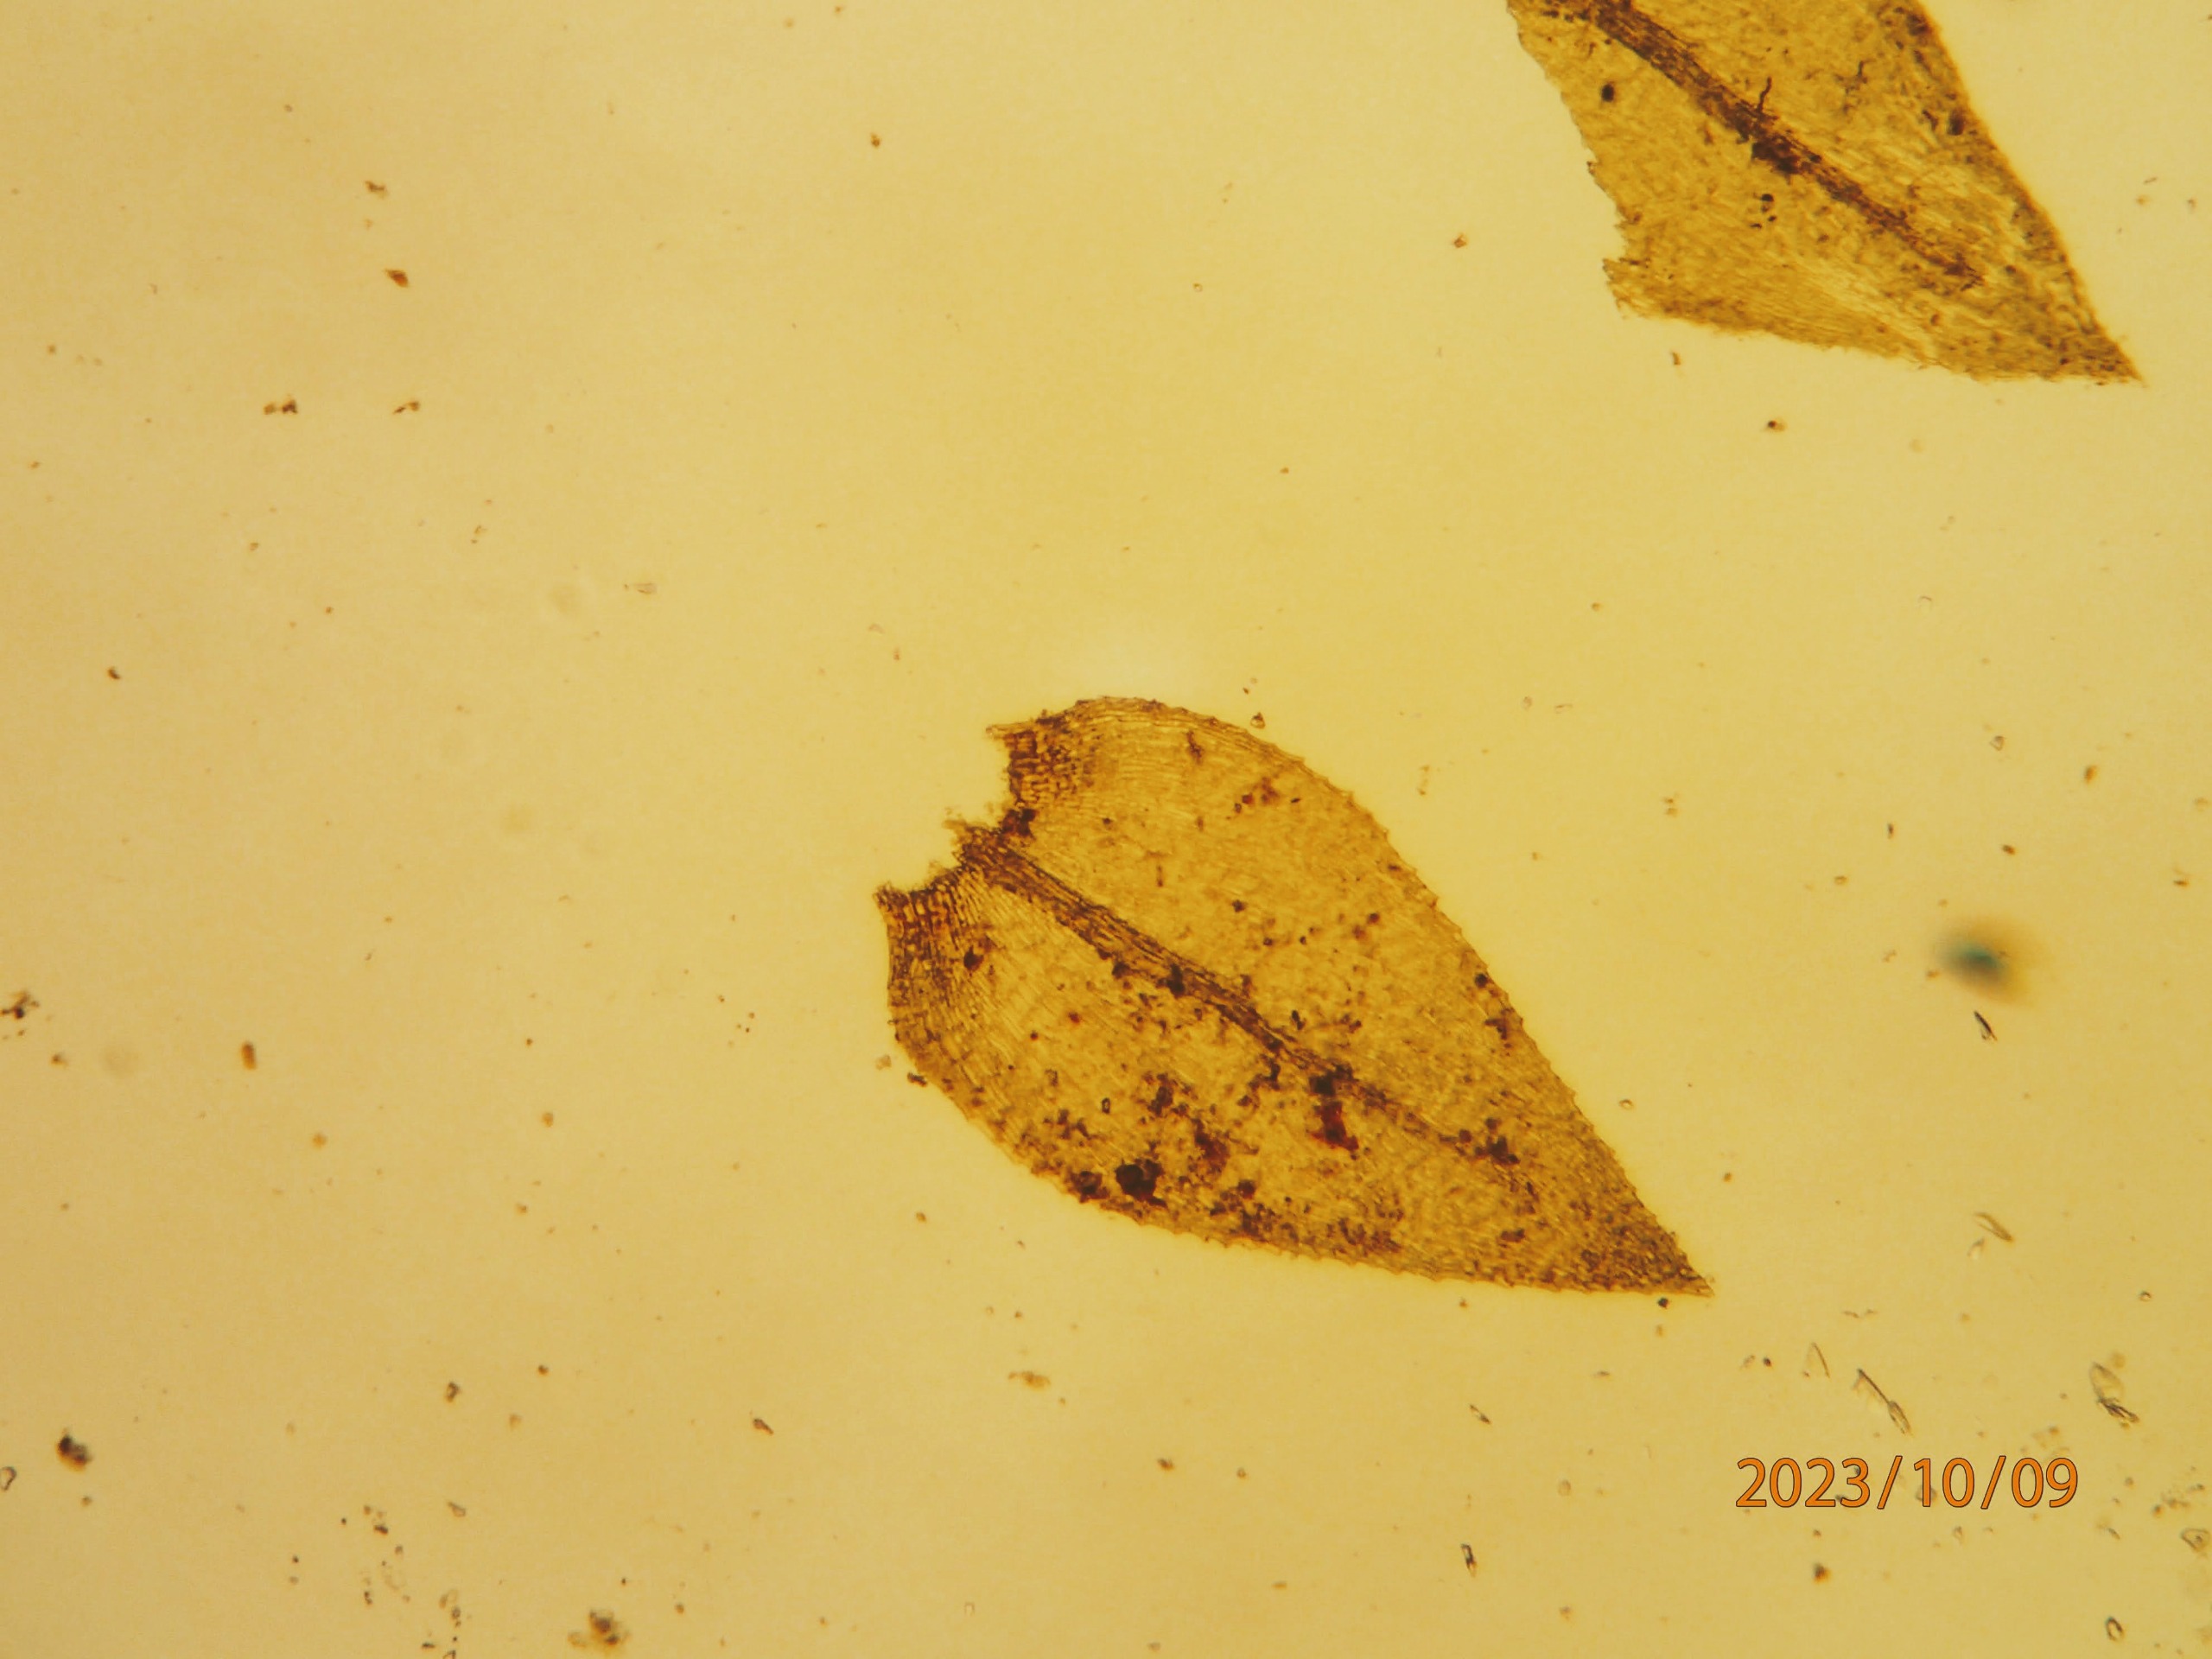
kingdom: Plantae
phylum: Bryophyta
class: Bryopsida
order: Hypnales
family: Brachytheciaceae
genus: Oxyrrhynchium
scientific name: Oxyrrhynchium hians
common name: Ler-vortetand
